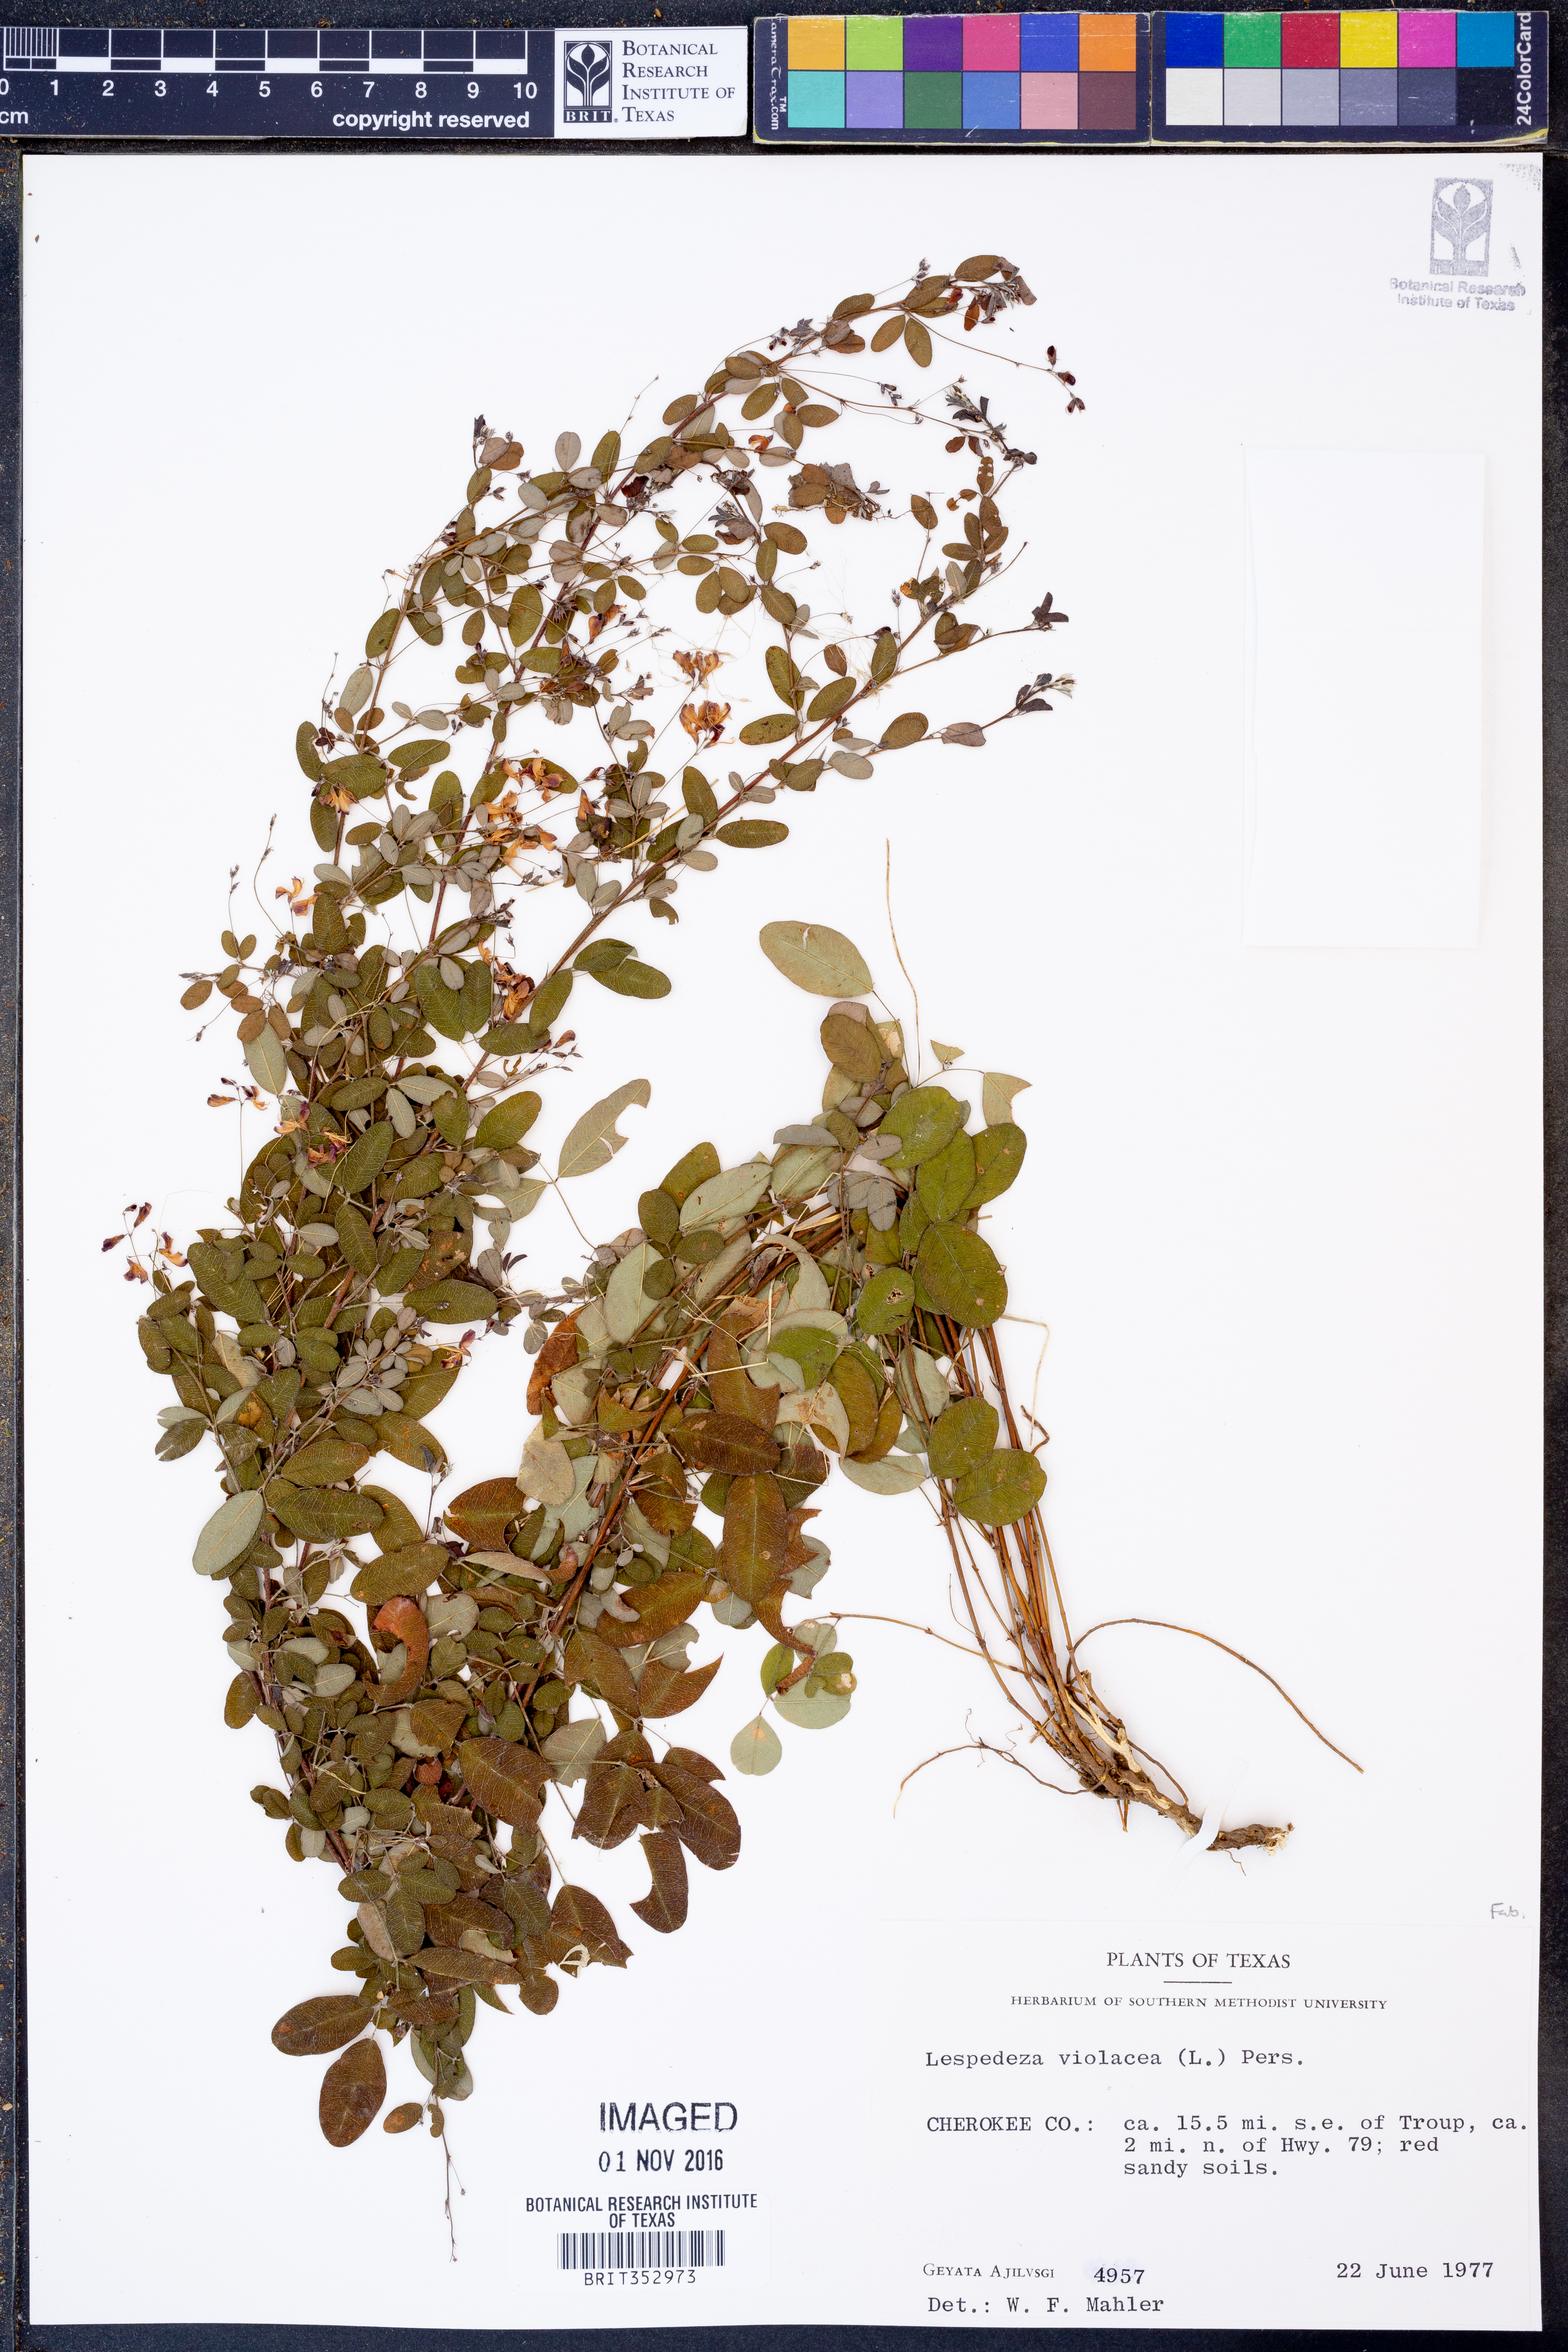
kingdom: Plantae
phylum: Tracheophyta
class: Magnoliopsida
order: Fabales
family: Fabaceae
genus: Lespedeza
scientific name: Lespedeza violacea
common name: Wand bush-clover
